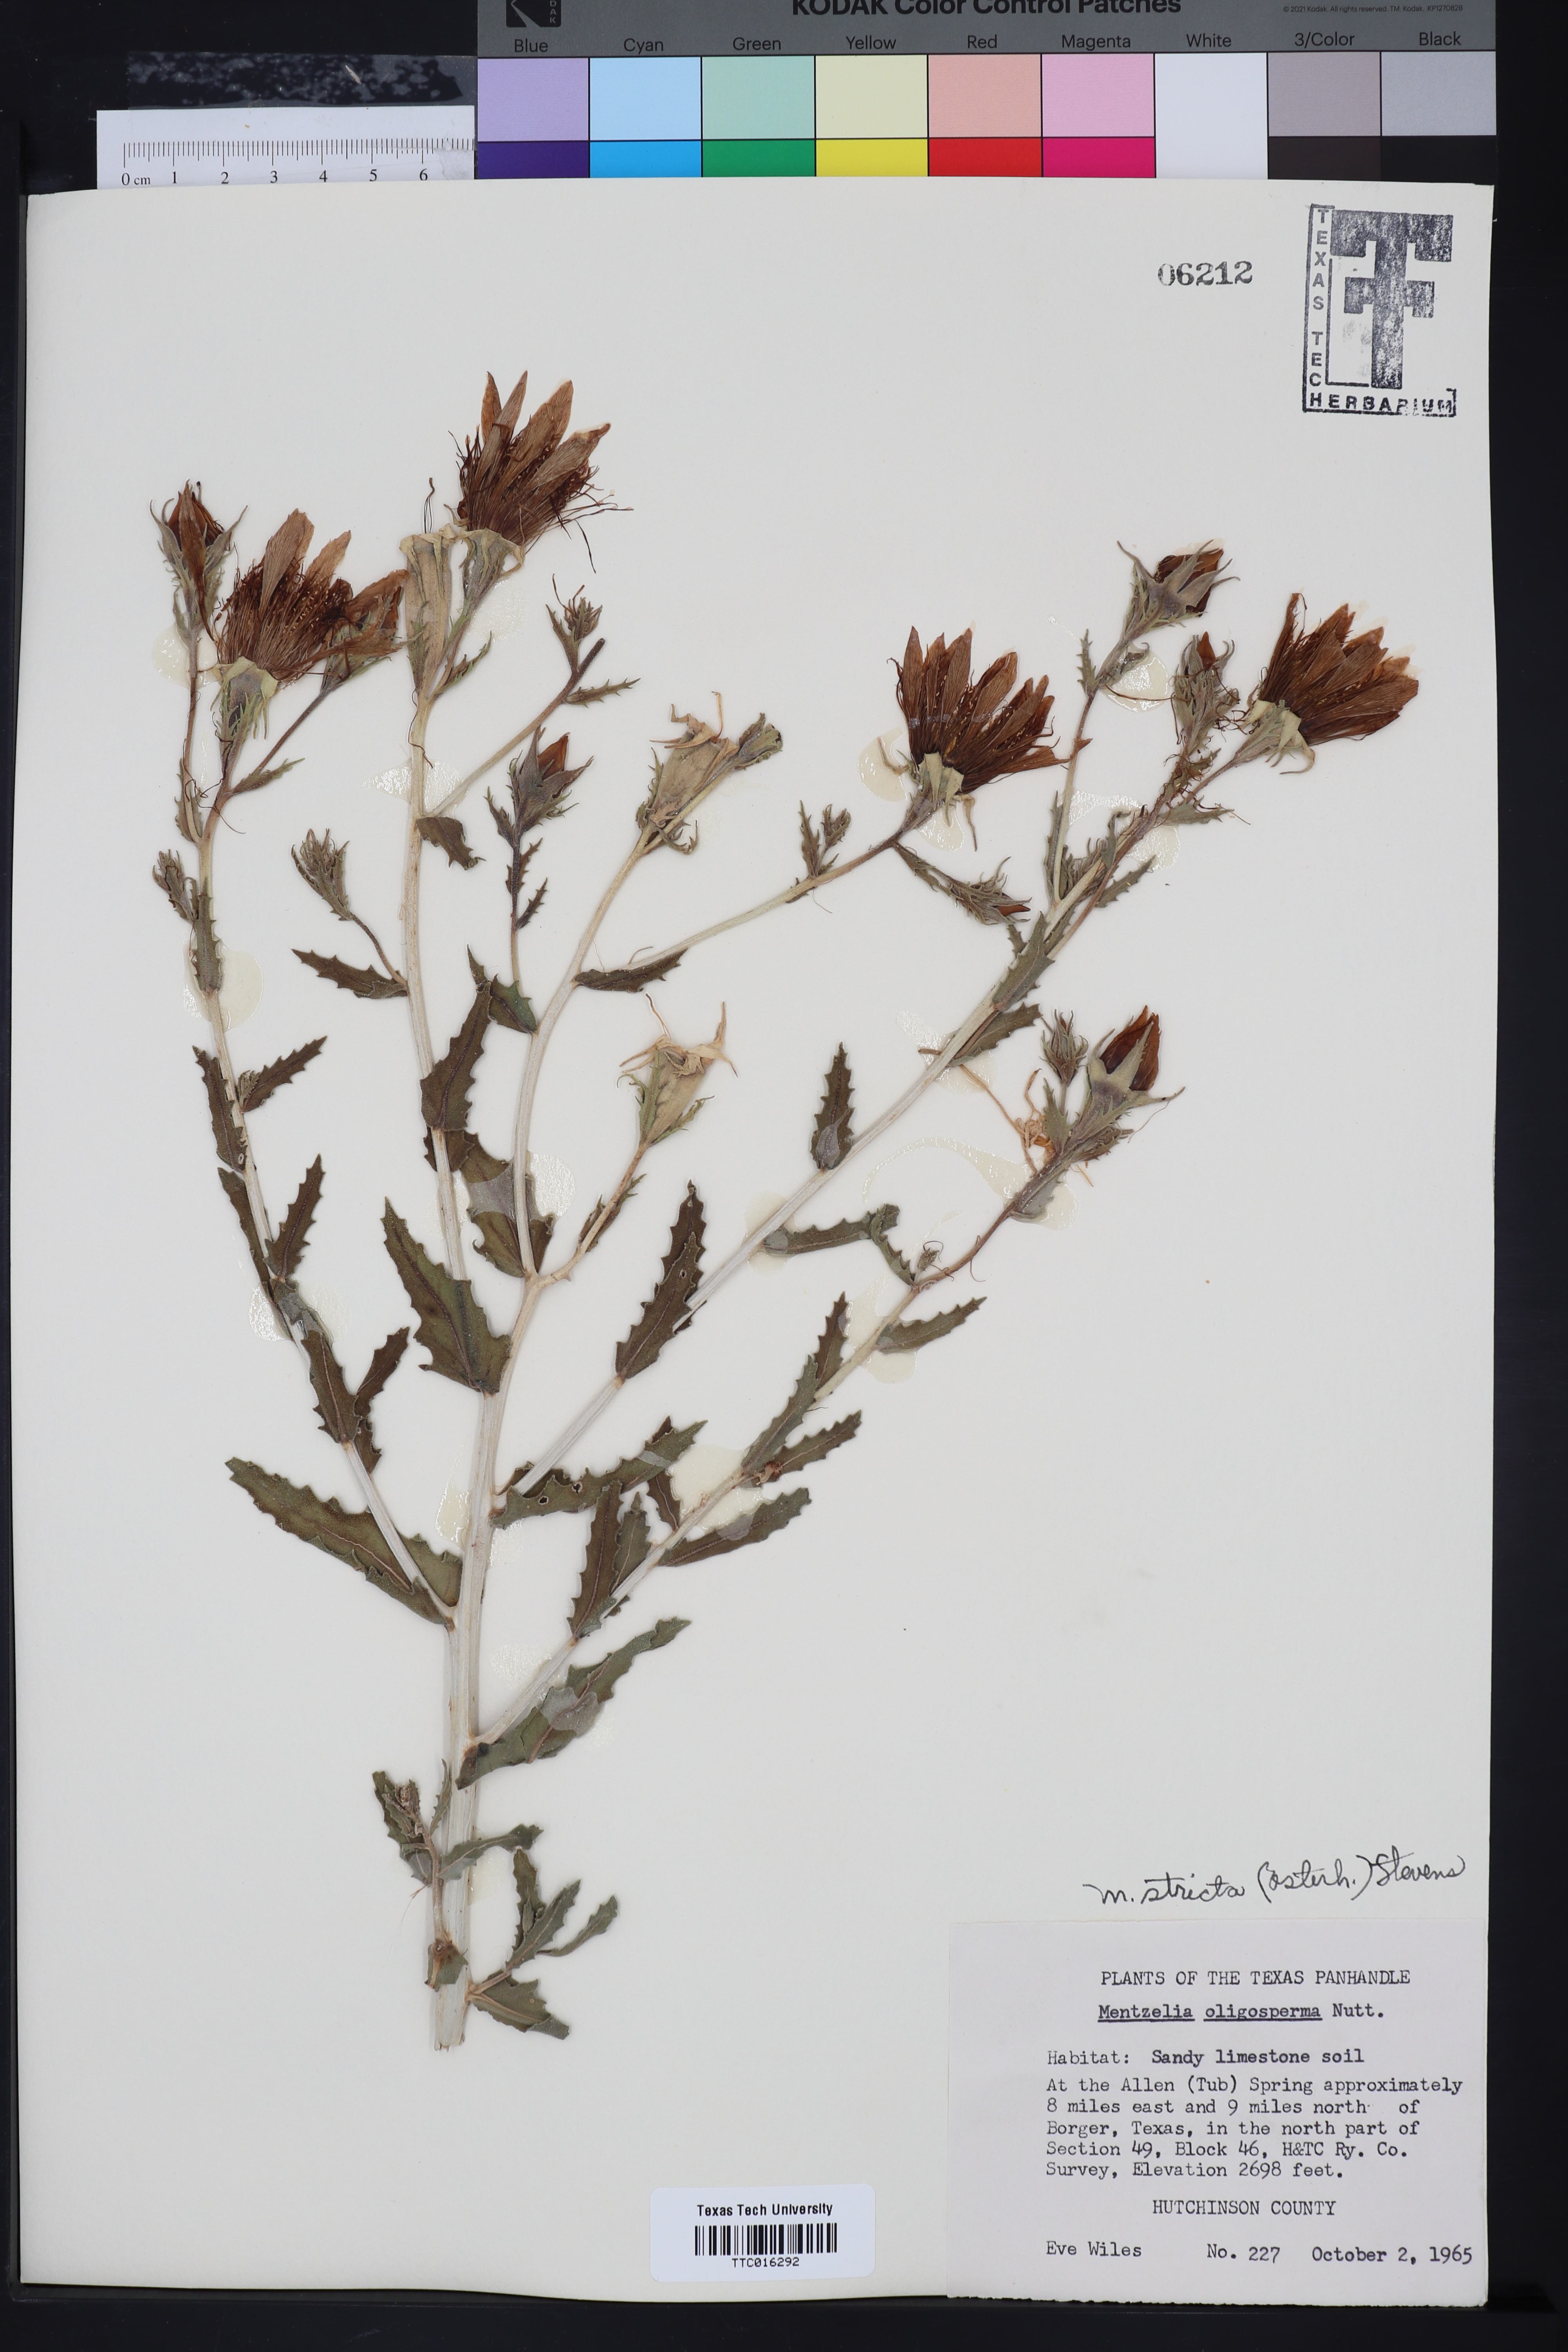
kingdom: Plantae
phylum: Tracheophyta
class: Magnoliopsida
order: Cornales
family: Loasaceae
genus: Mentzelia
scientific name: Mentzelia nuda
